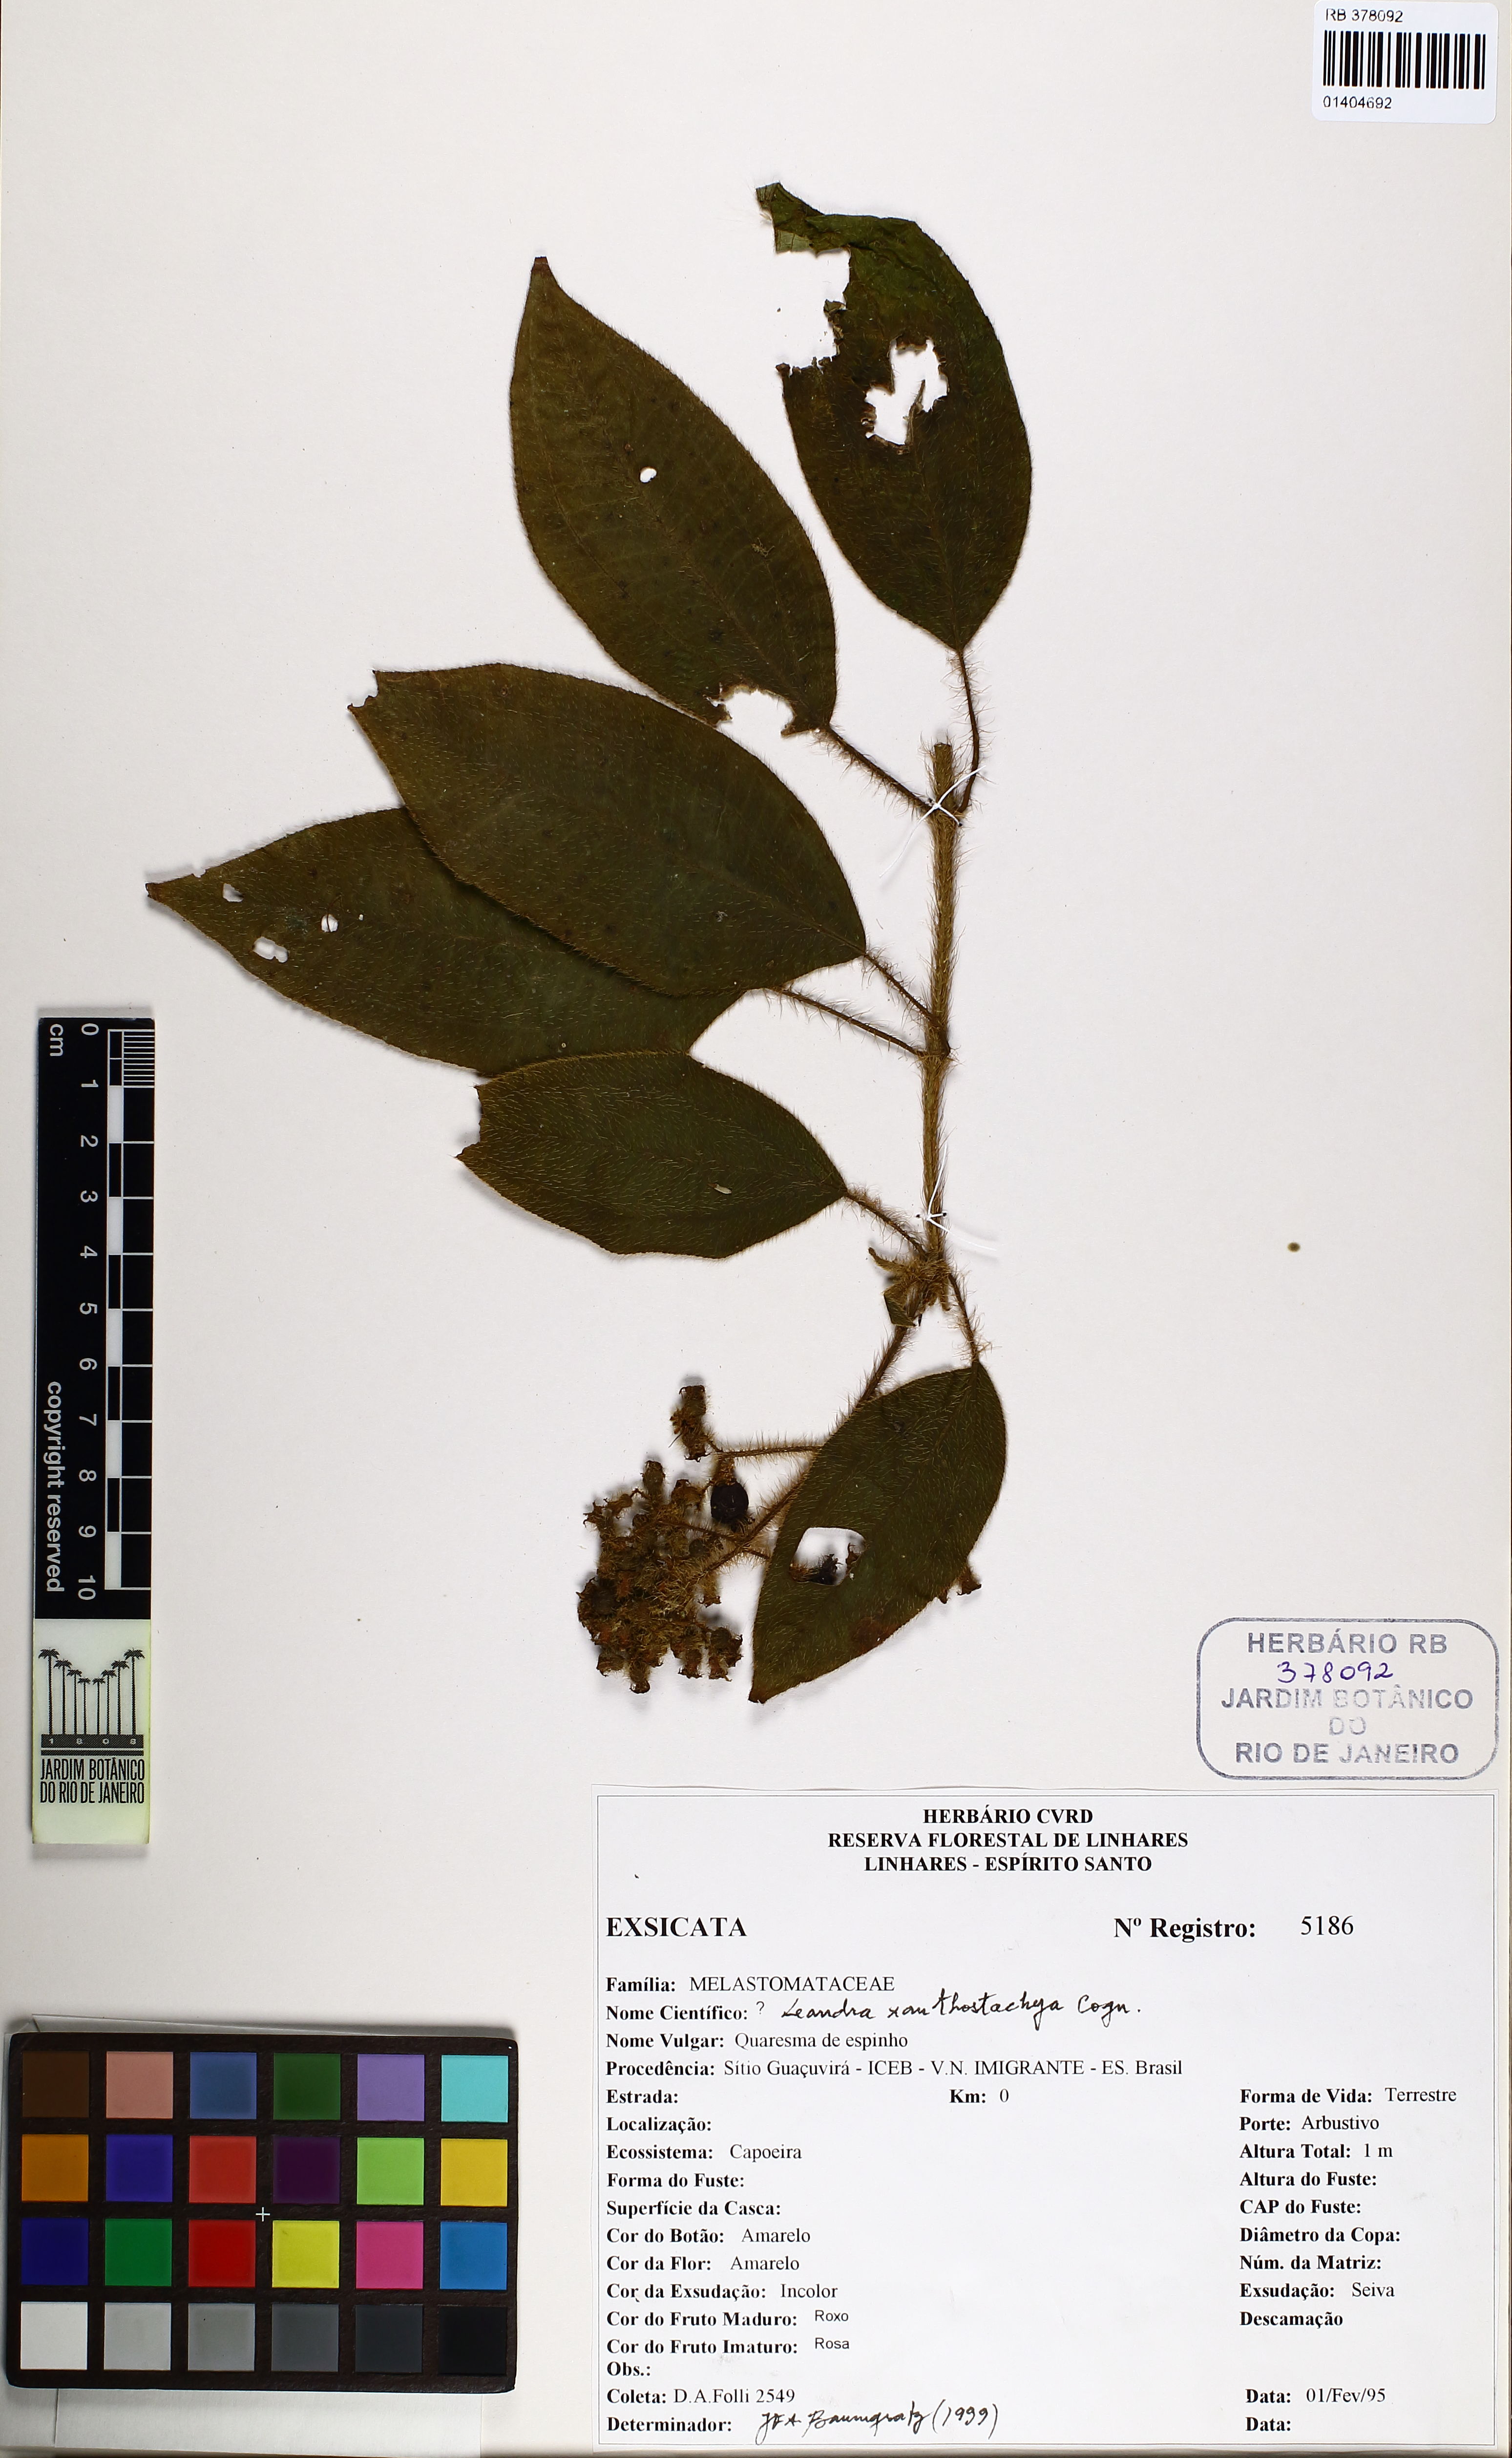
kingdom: Plantae
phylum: Tracheophyta
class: Magnoliopsida
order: Myrtales
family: Melastomataceae
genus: Miconia
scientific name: Miconia xanthostachya
